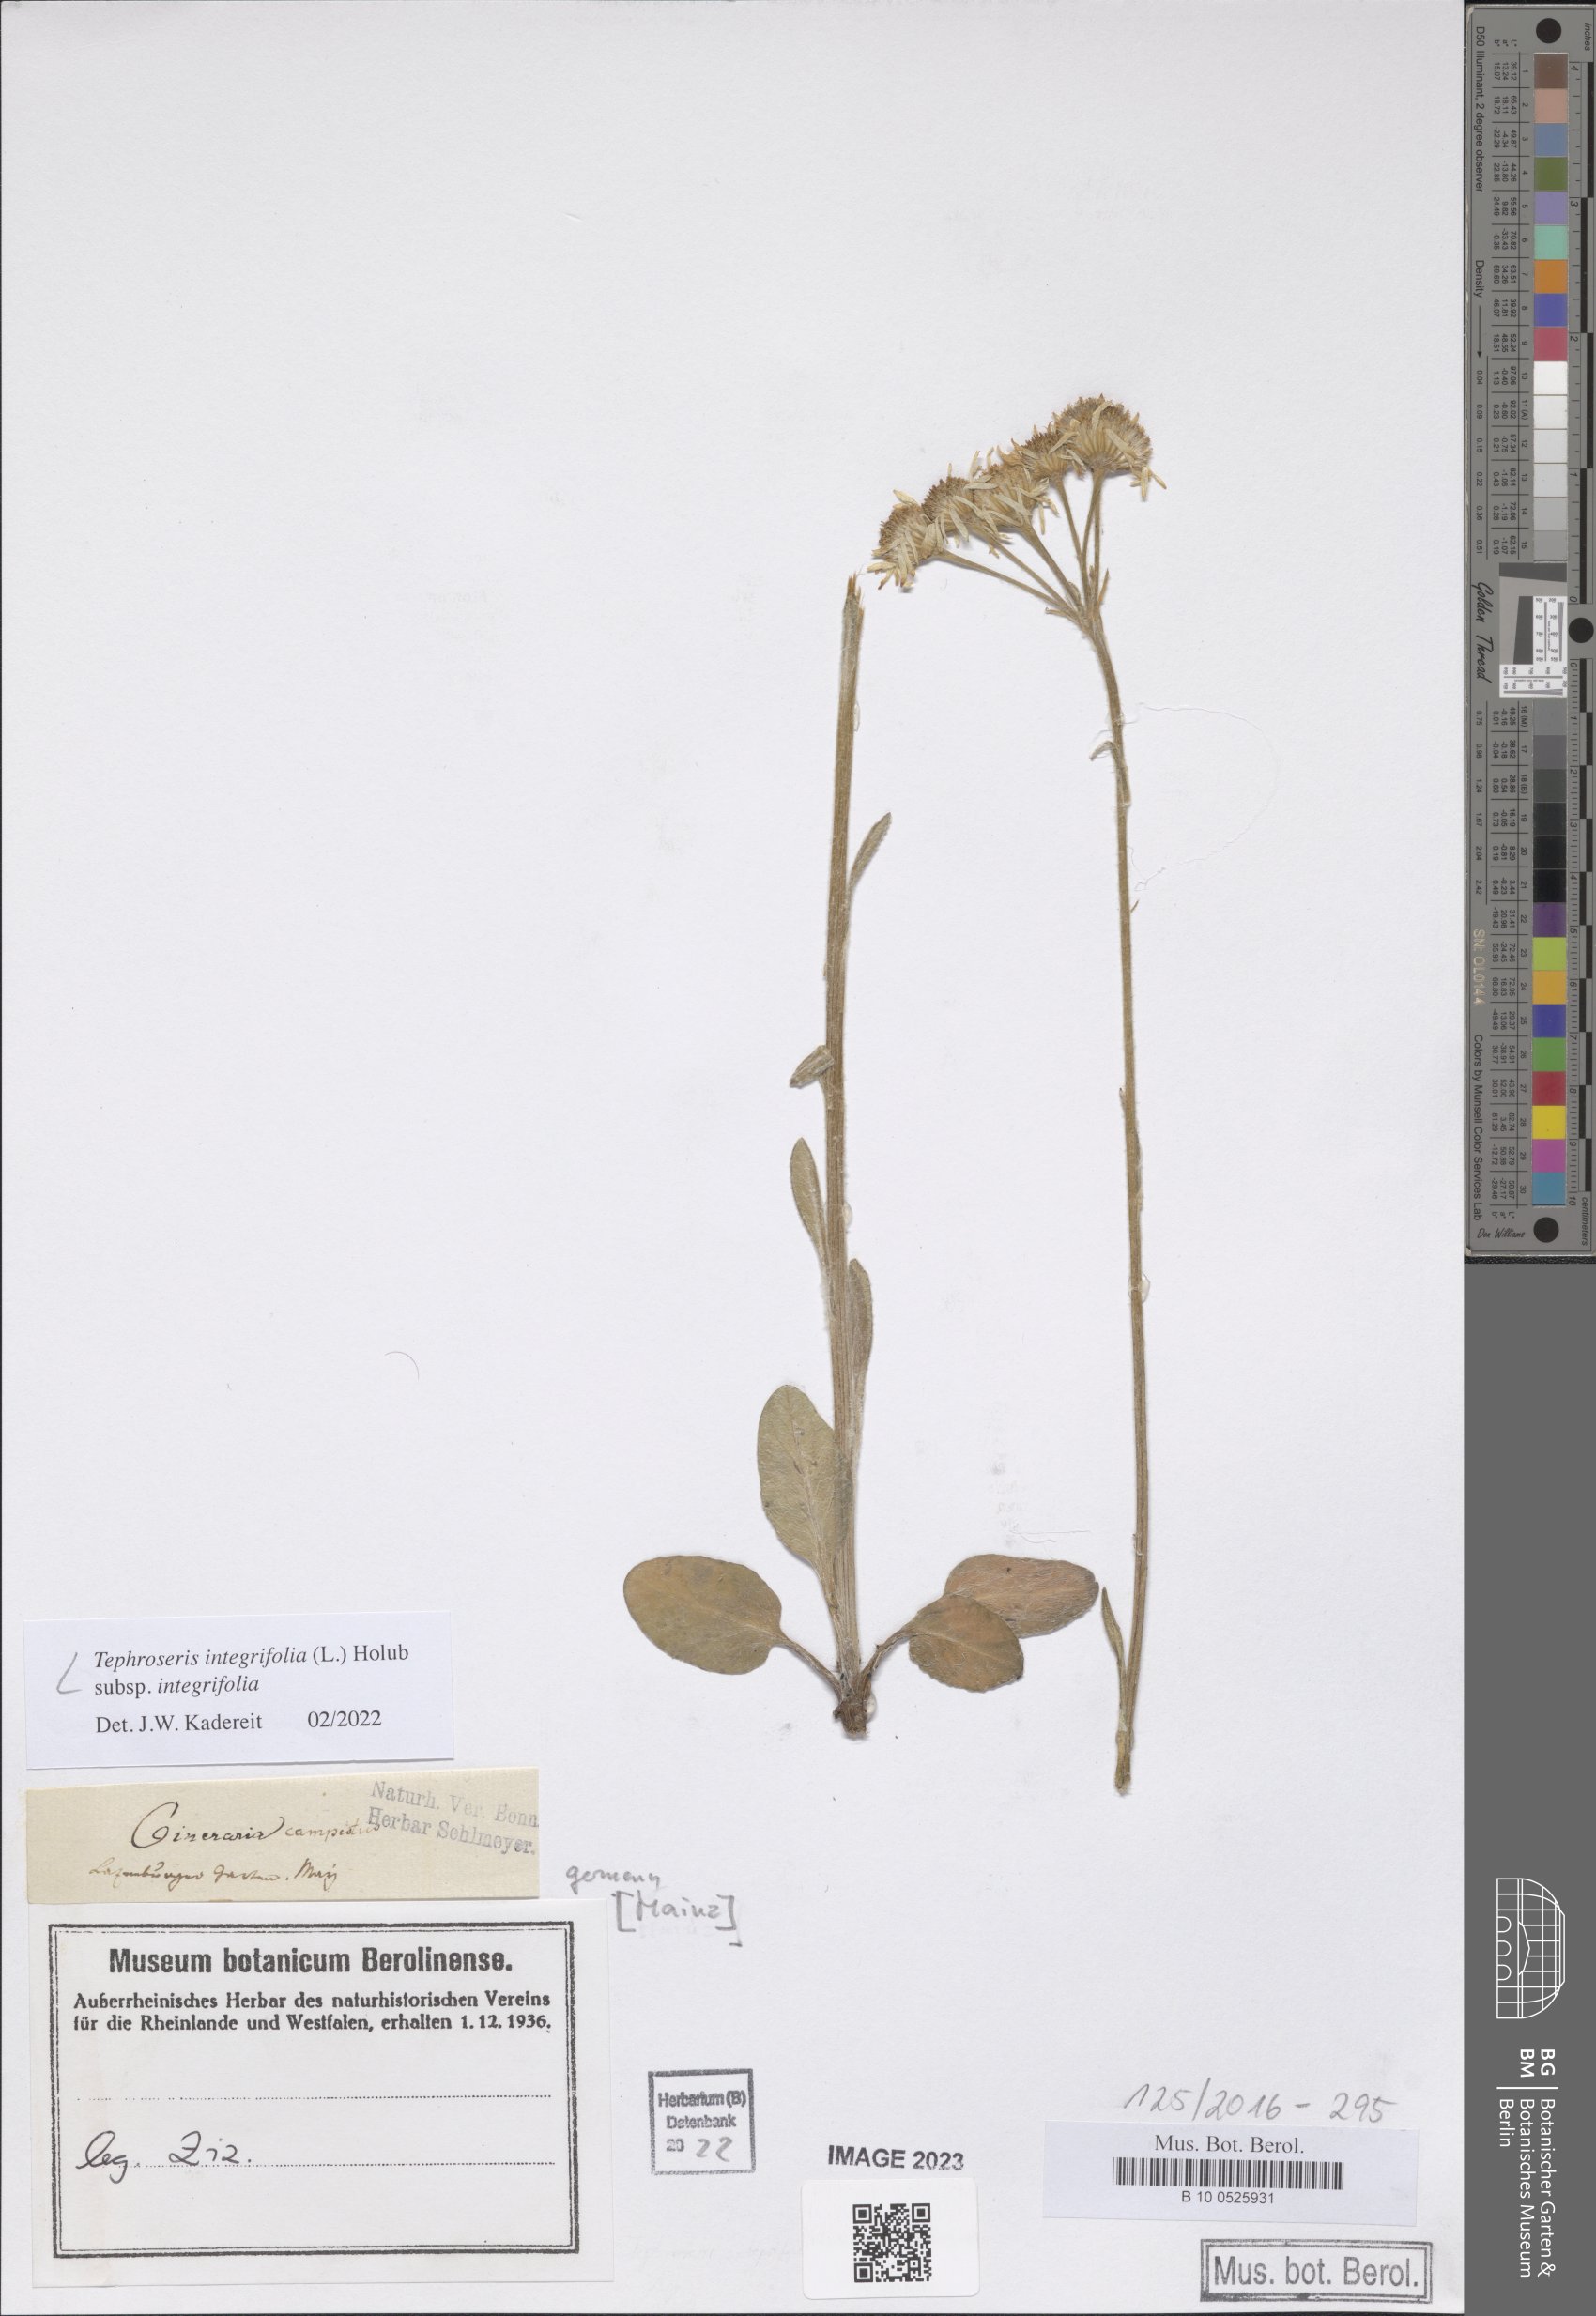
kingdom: Plantae
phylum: Tracheophyta
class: Magnoliopsida
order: Asterales
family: Asteraceae
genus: Tephroseris
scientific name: Tephroseris integrifolia
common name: Field fleawort
